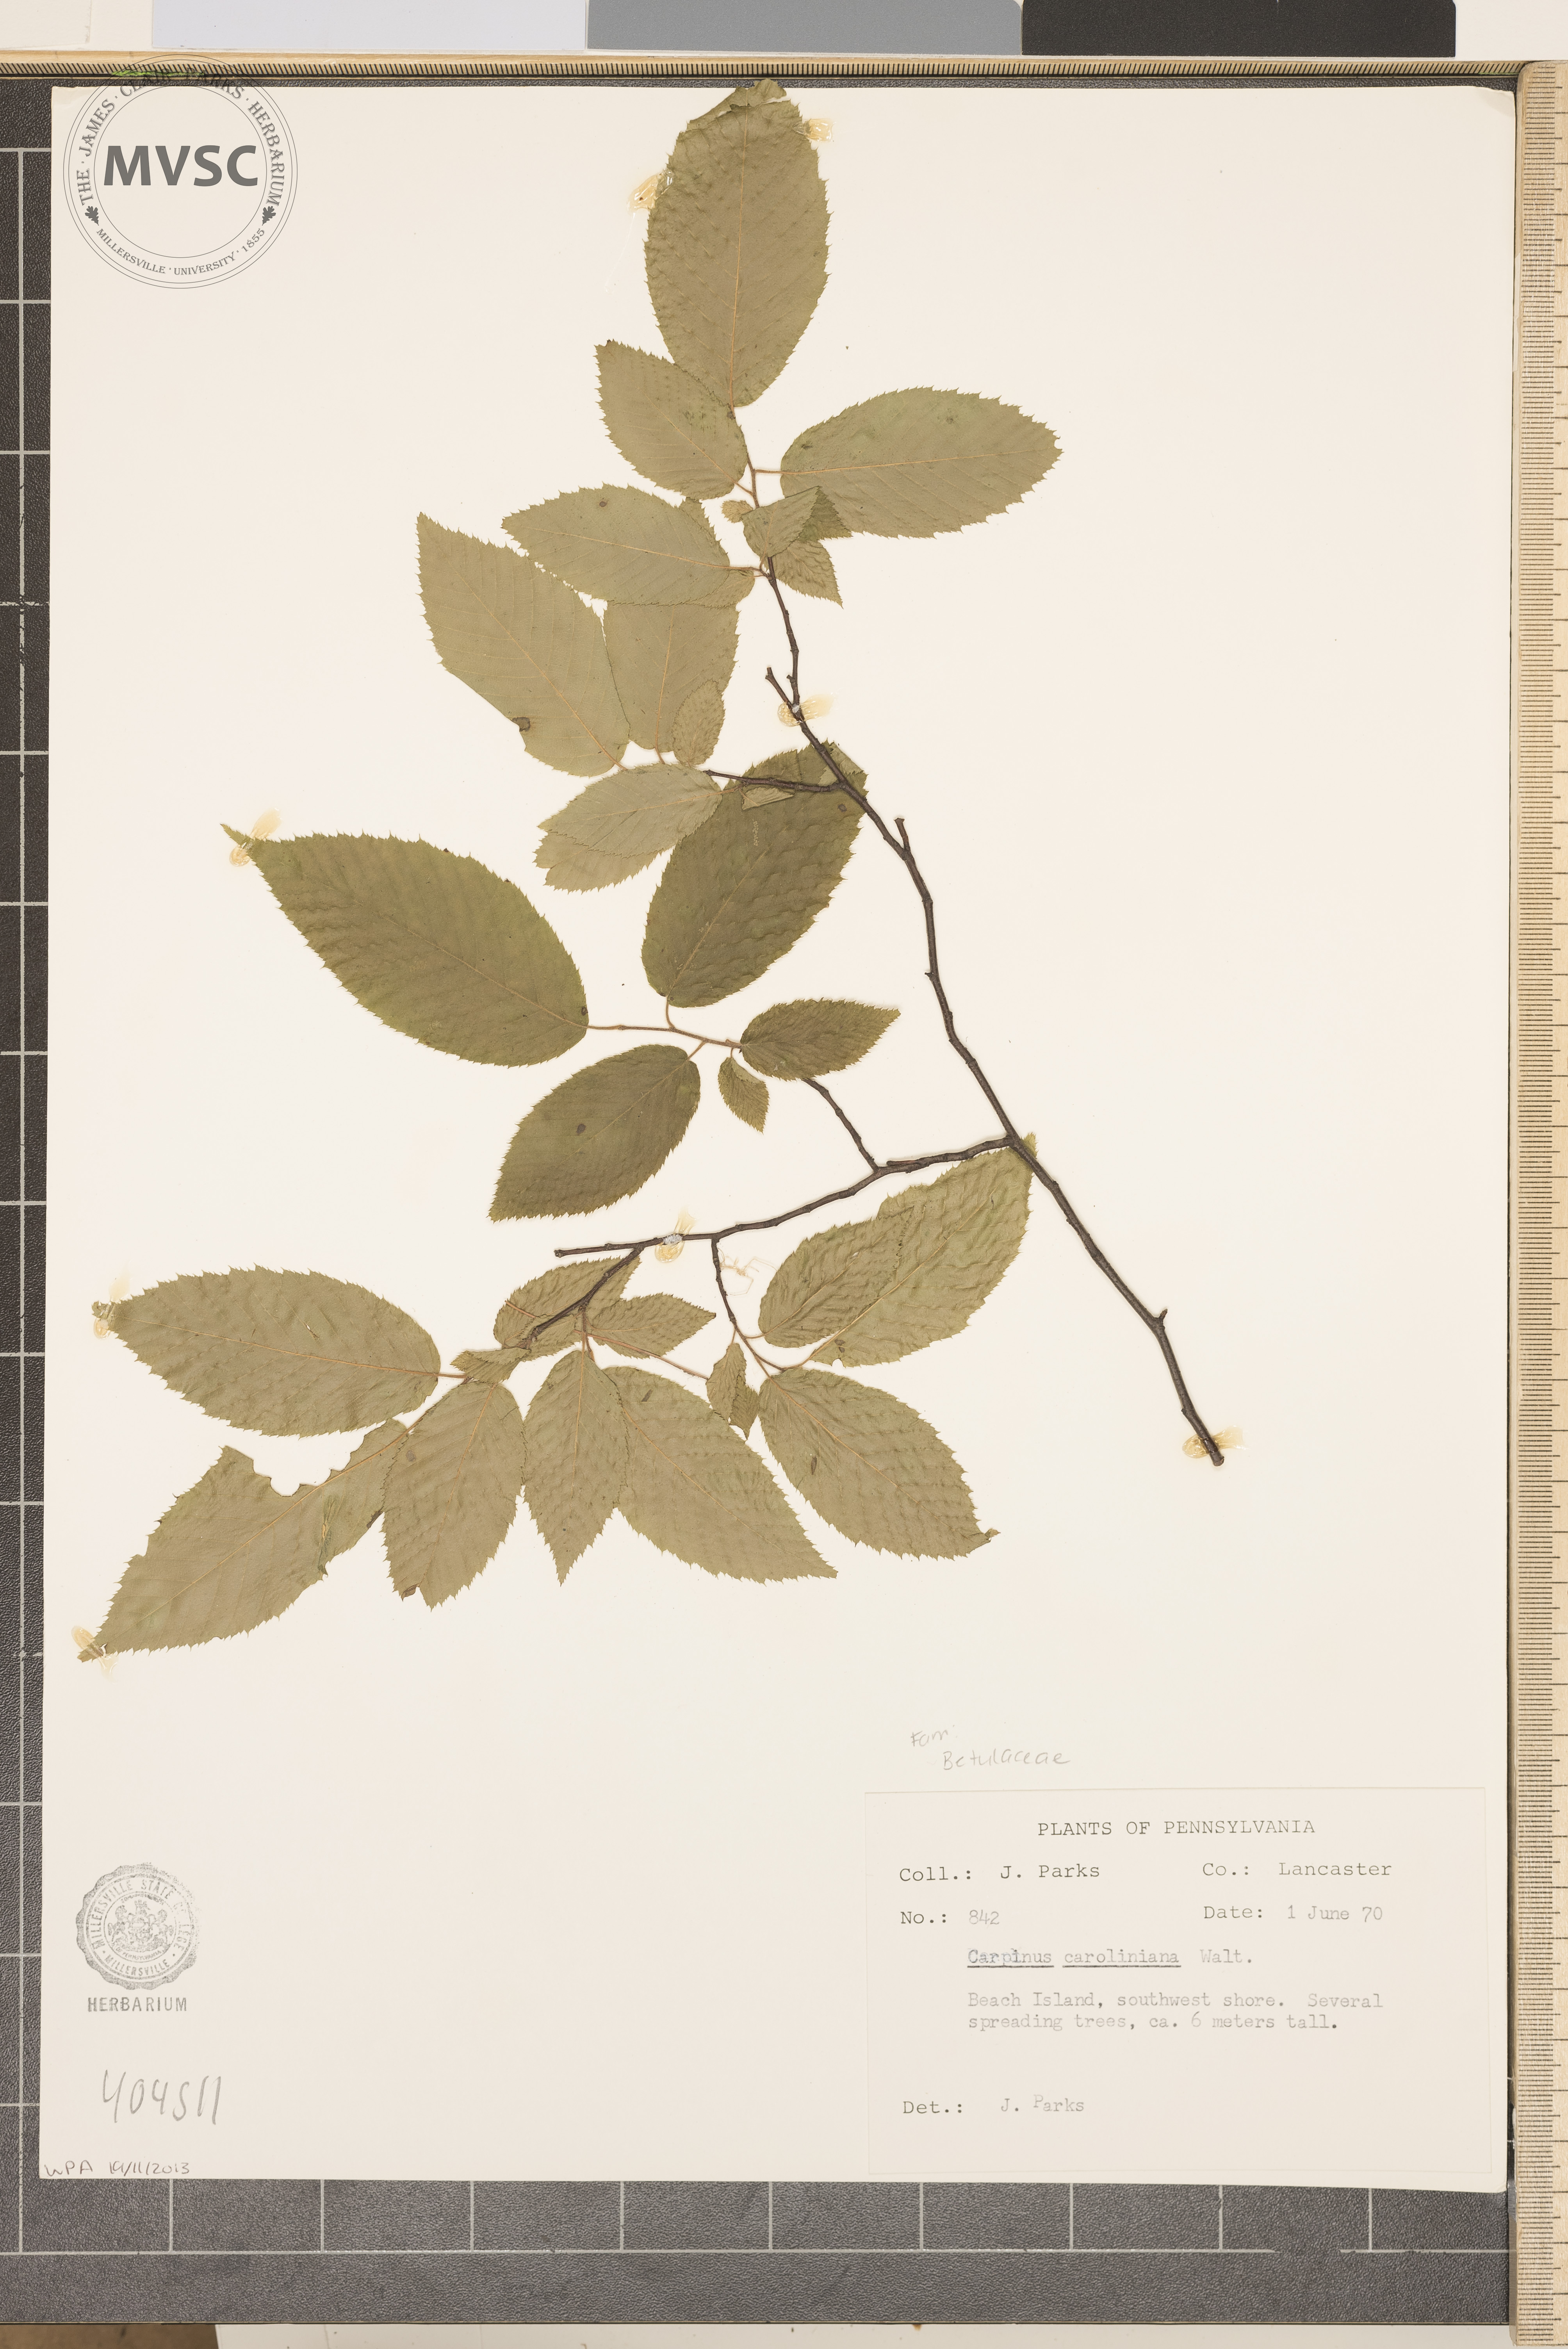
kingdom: Plantae
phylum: Tracheophyta
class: Magnoliopsida
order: Fagales
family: Betulaceae
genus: Carpinus
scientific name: Carpinus caroliniana
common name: American hornbeam
